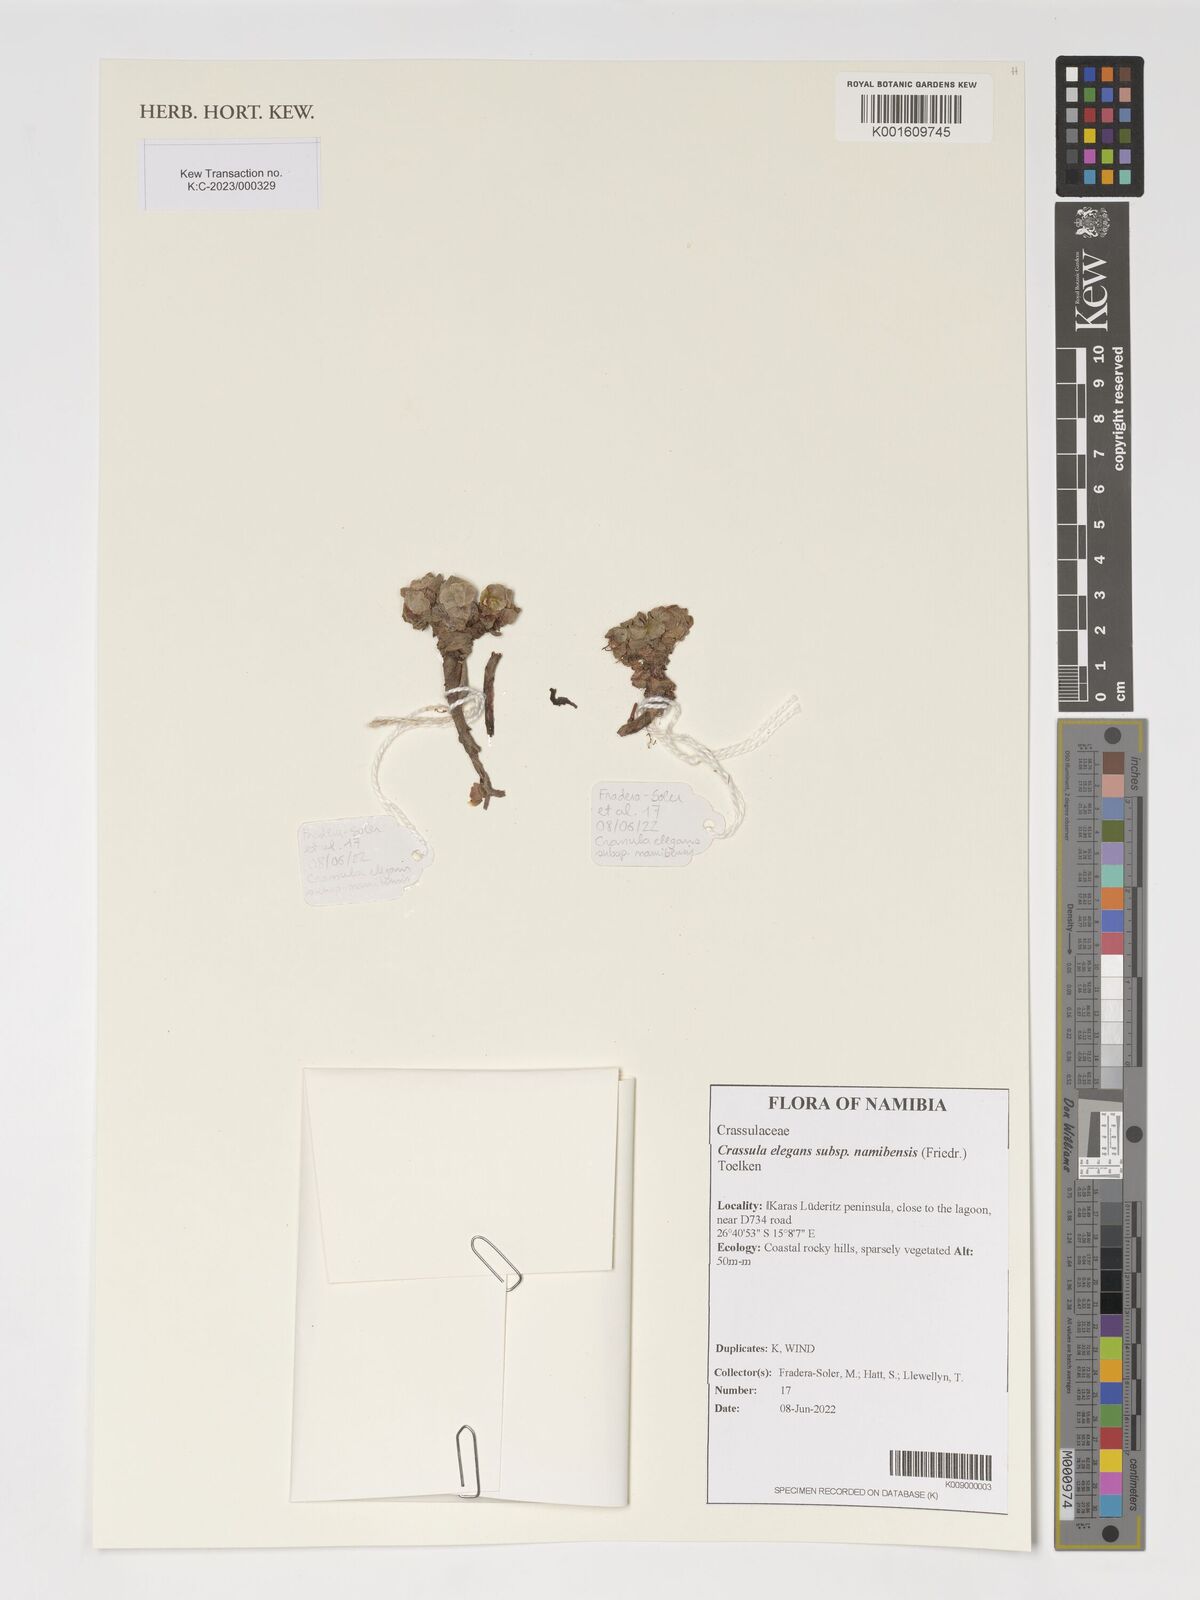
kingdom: Plantae
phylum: Tracheophyta
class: Magnoliopsida
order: Saxifragales
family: Crassulaceae
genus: Crassula
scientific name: Crassula elegans
